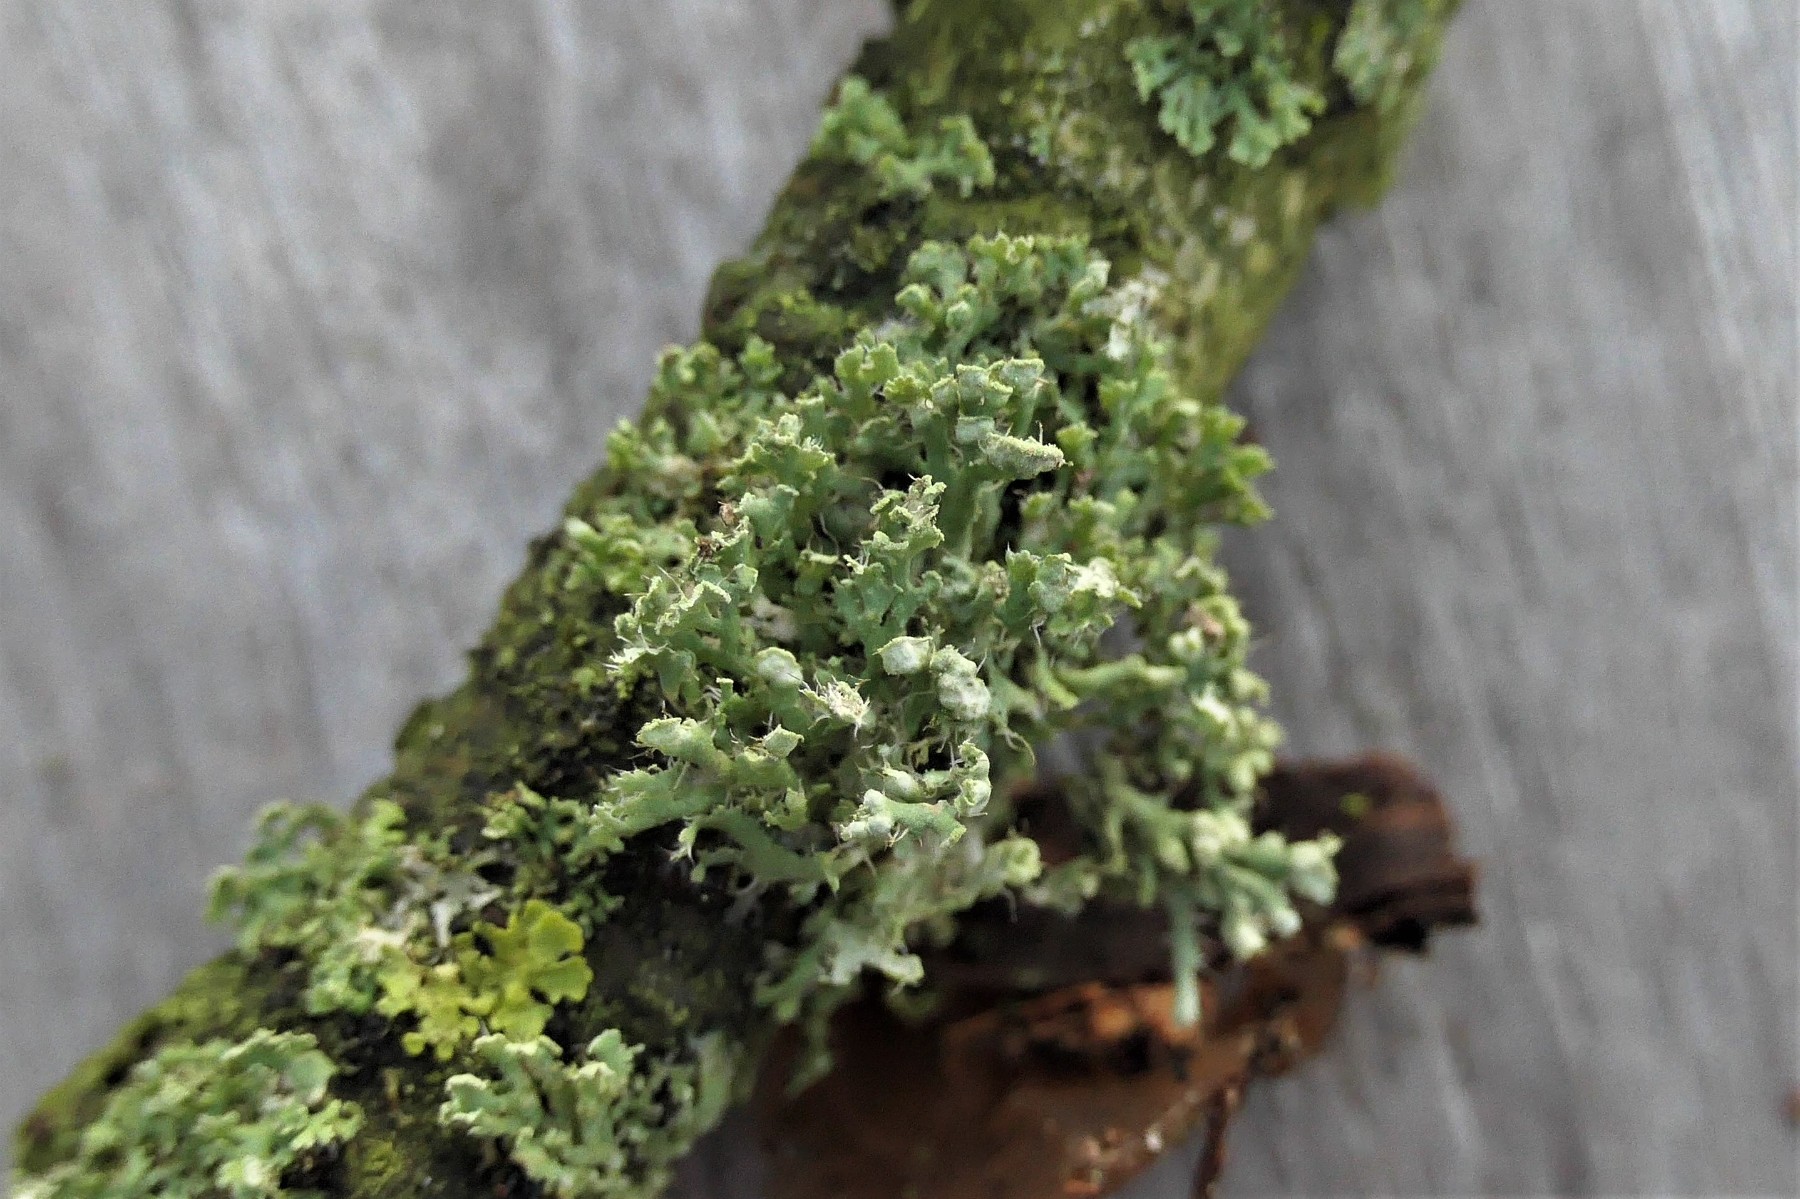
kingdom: Fungi
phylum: Ascomycota
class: Lecanoromycetes
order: Caliciales
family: Physciaceae
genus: Physcia
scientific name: Physcia adscendens
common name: hætte-rosetlav
